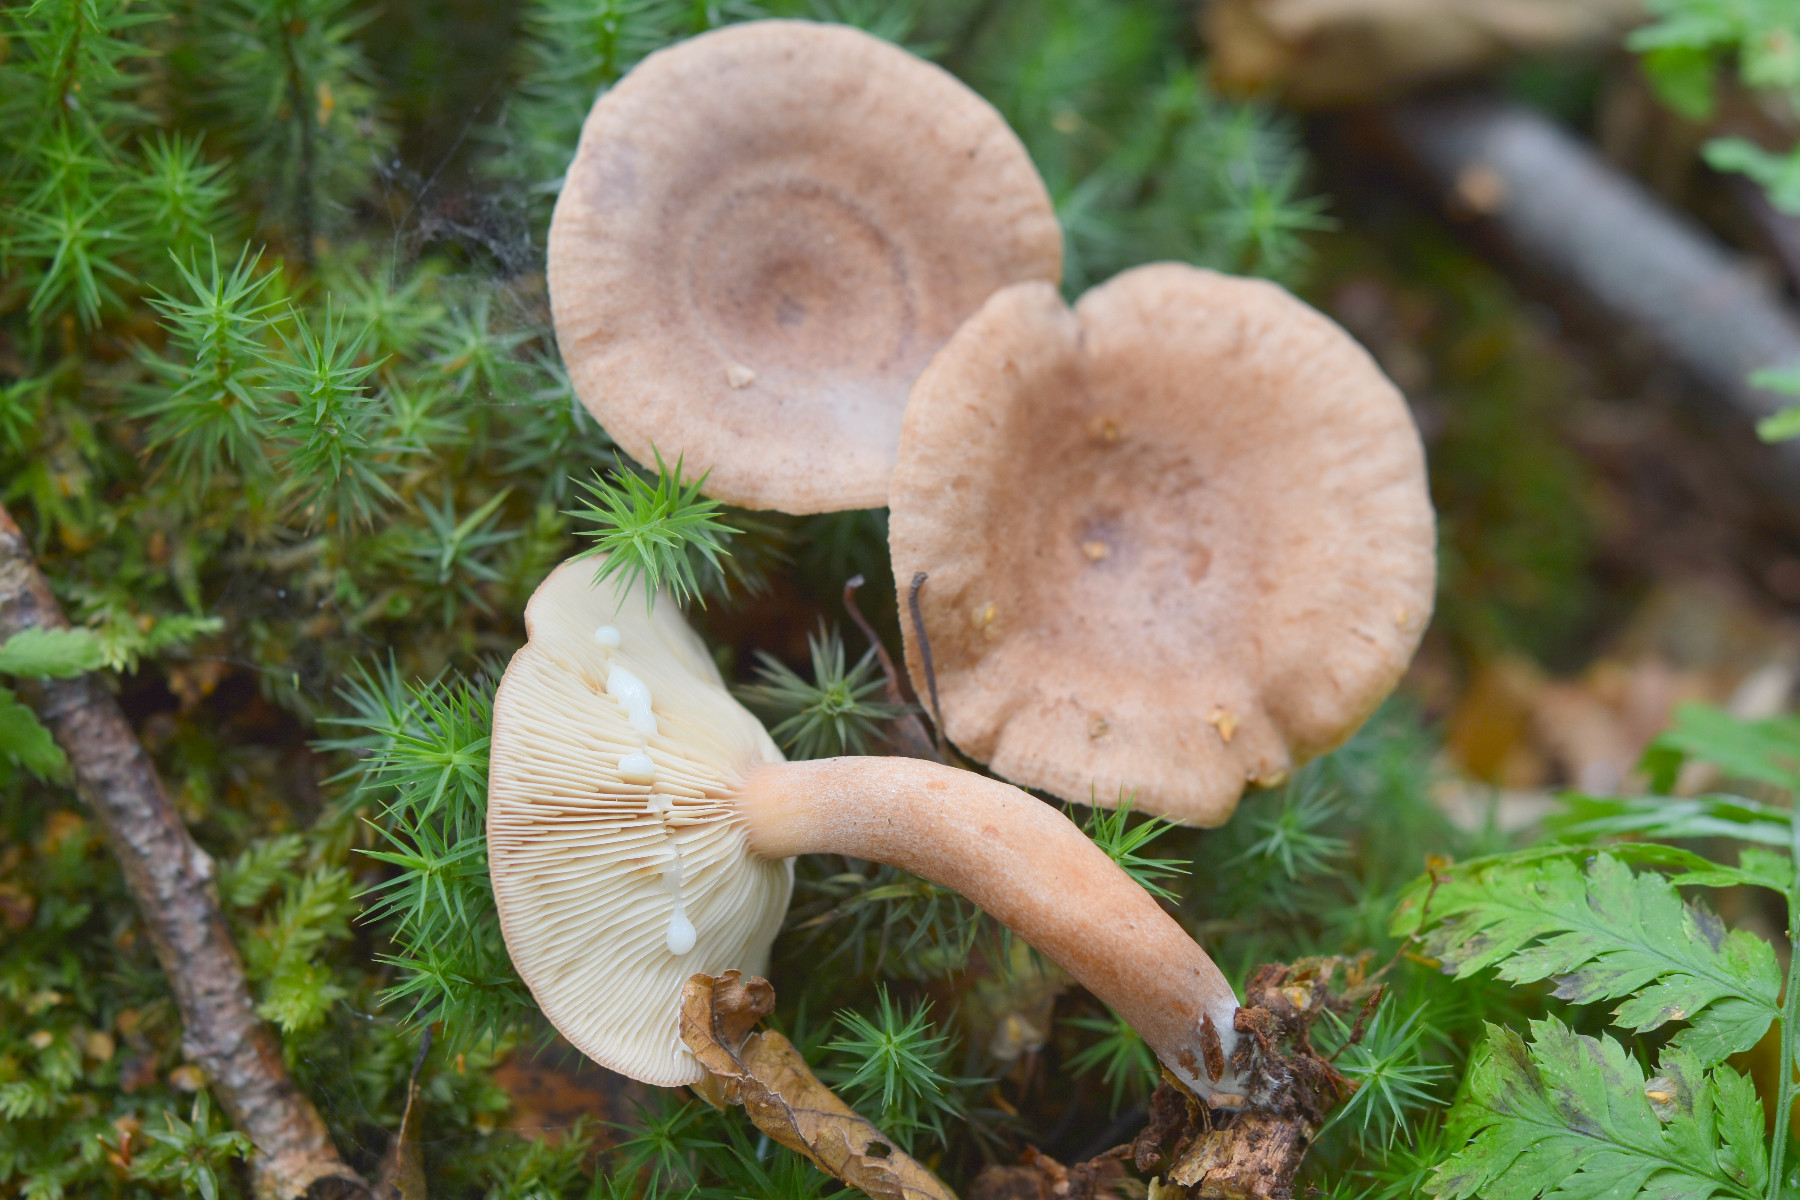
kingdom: Fungi
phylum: Basidiomycota
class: Agaricomycetes
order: Russulales
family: Russulaceae
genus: Lactarius
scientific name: Lactarius quietus
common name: ege-mælkehat
